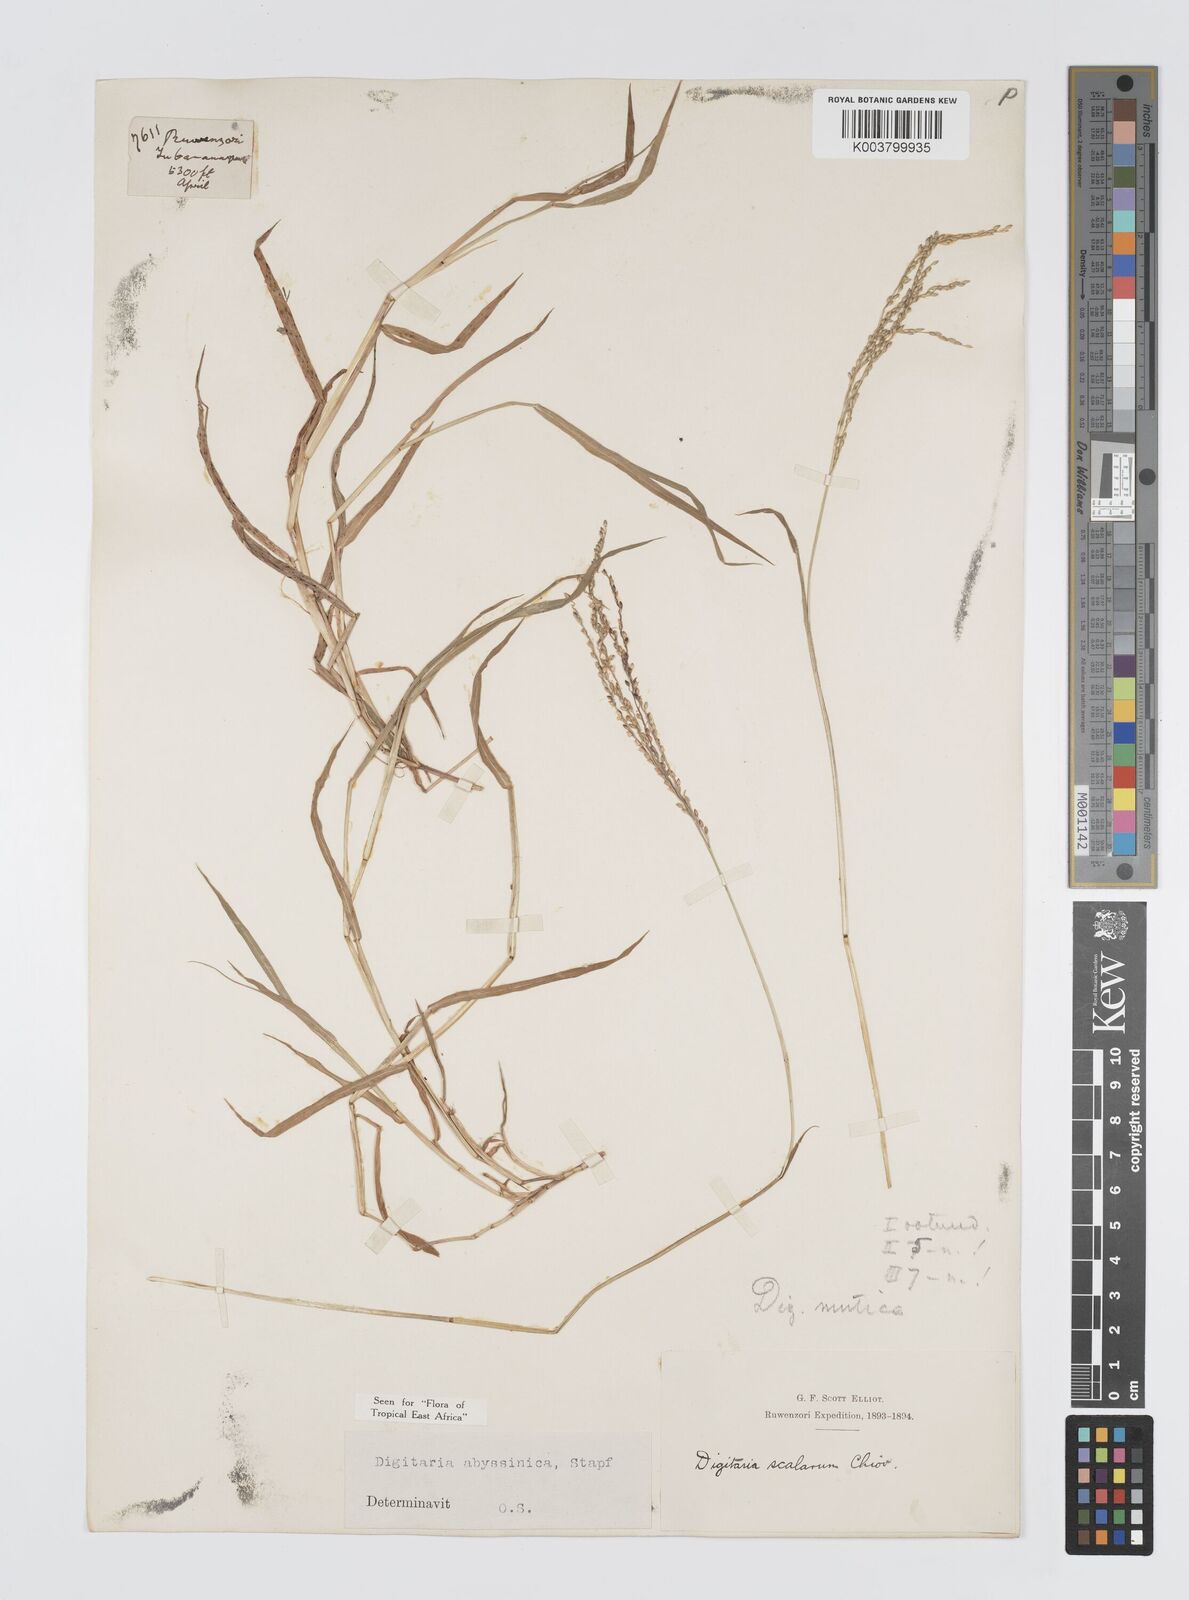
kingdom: Plantae
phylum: Tracheophyta
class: Liliopsida
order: Poales
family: Poaceae
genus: Digitaria
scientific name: Digitaria abyssinica
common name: African couchgrass
